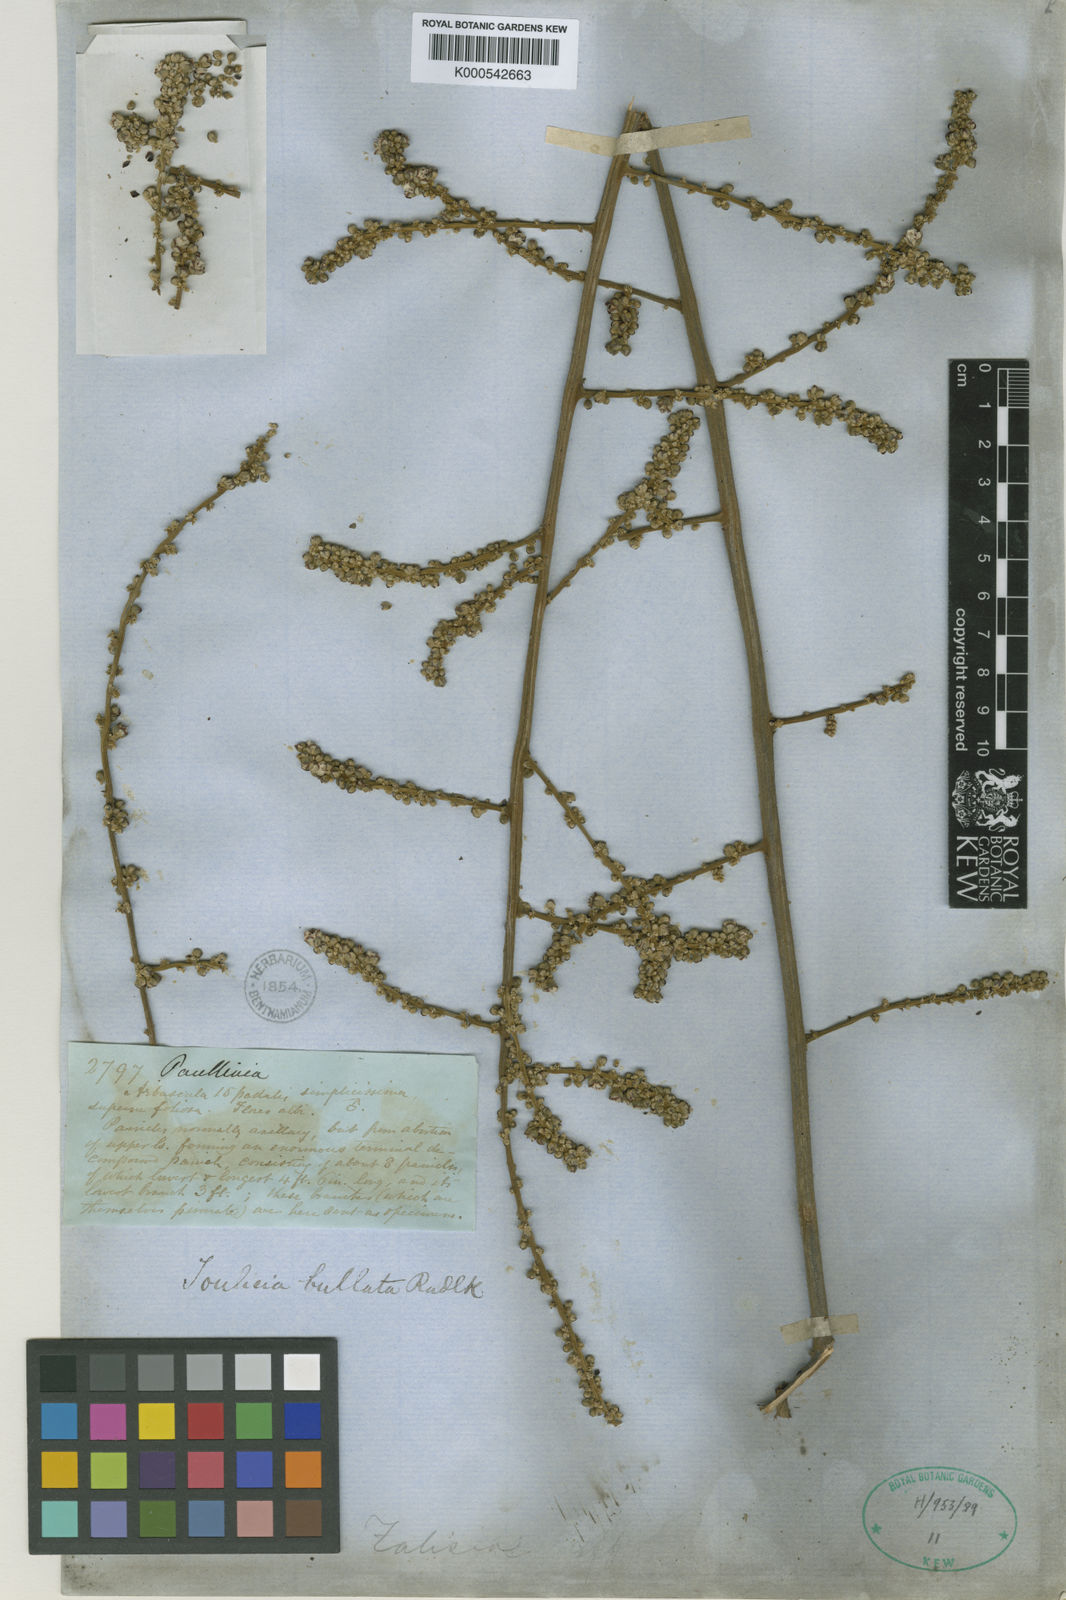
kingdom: Plantae
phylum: Tracheophyta
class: Magnoliopsida
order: Sapindales
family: Sapindaceae
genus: Toulicia
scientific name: Toulicia bullata
